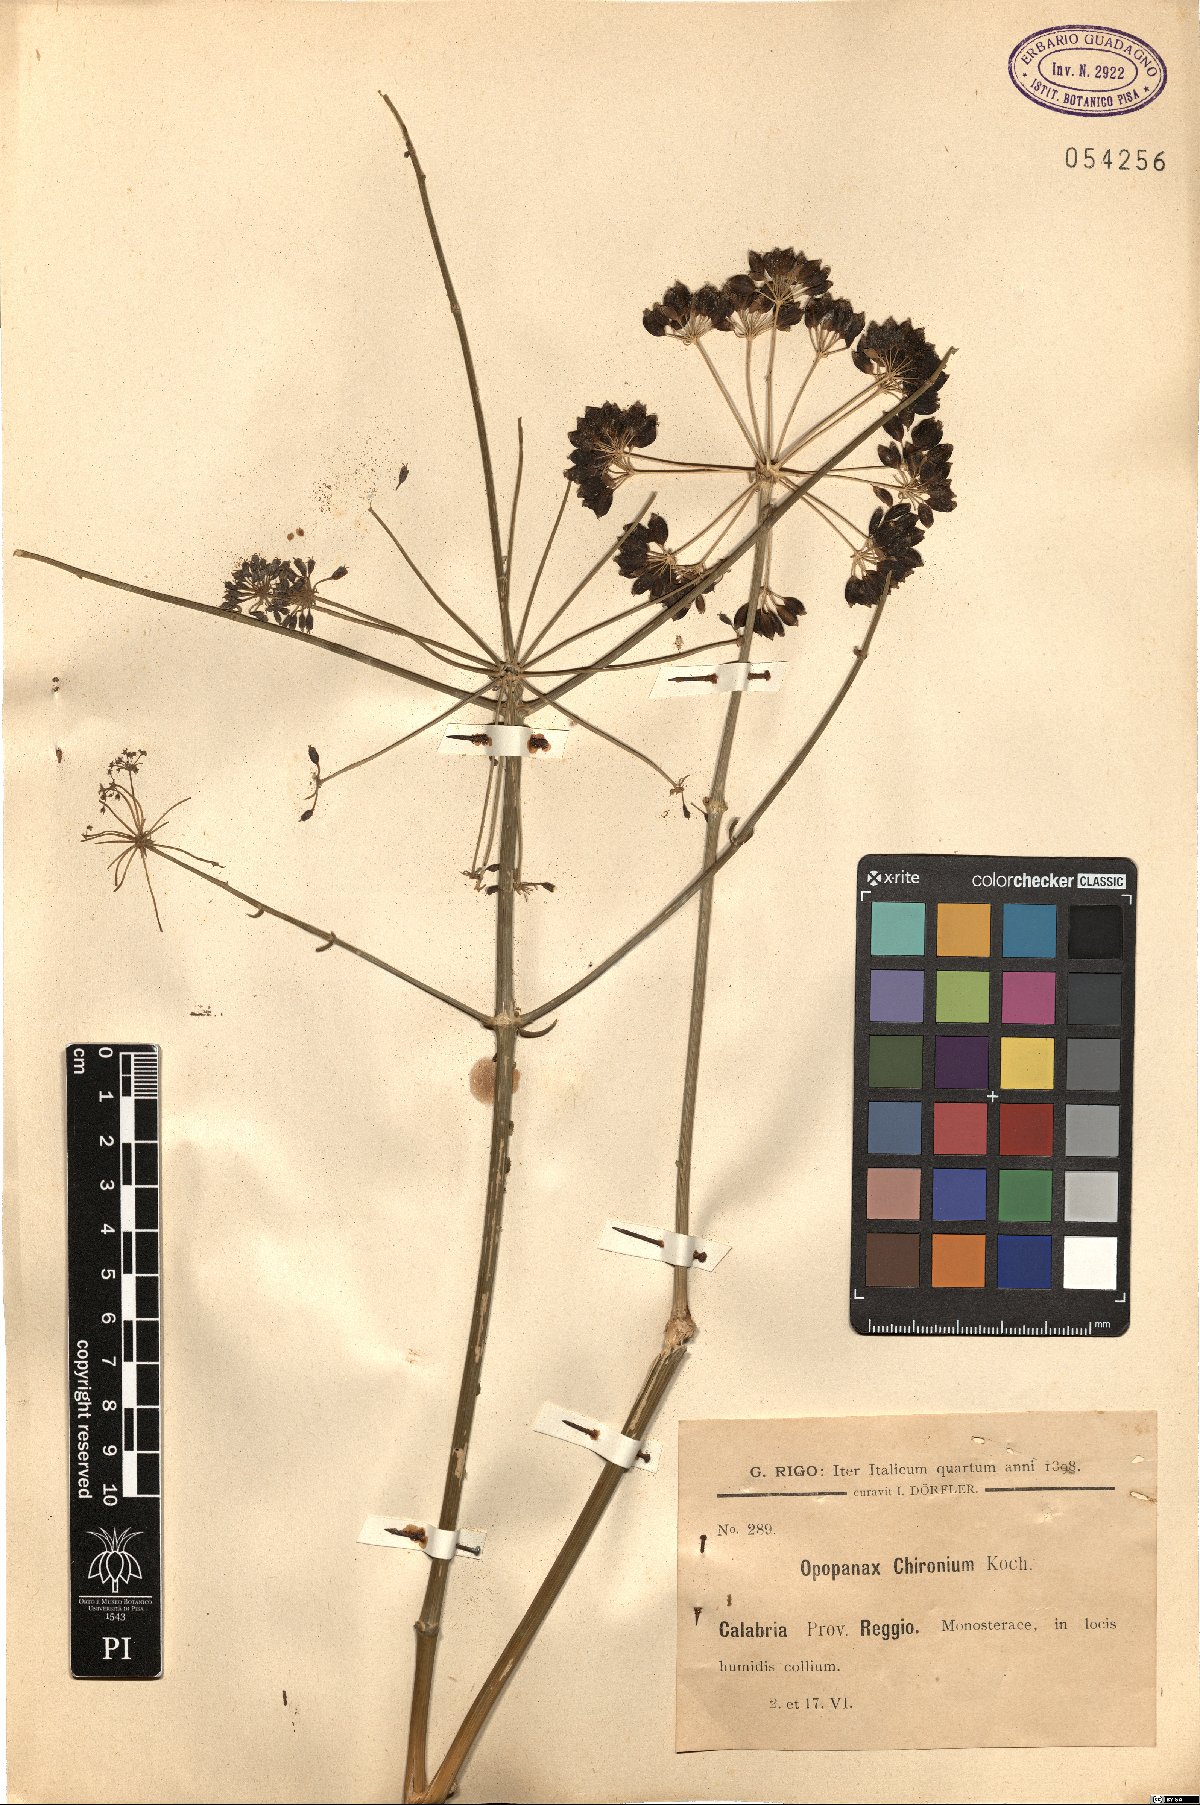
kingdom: Plantae
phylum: Tracheophyta
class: Magnoliopsida
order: Apiales
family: Apiaceae
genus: Opopanax
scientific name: Opopanax chironium
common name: Hercules-all-heal
